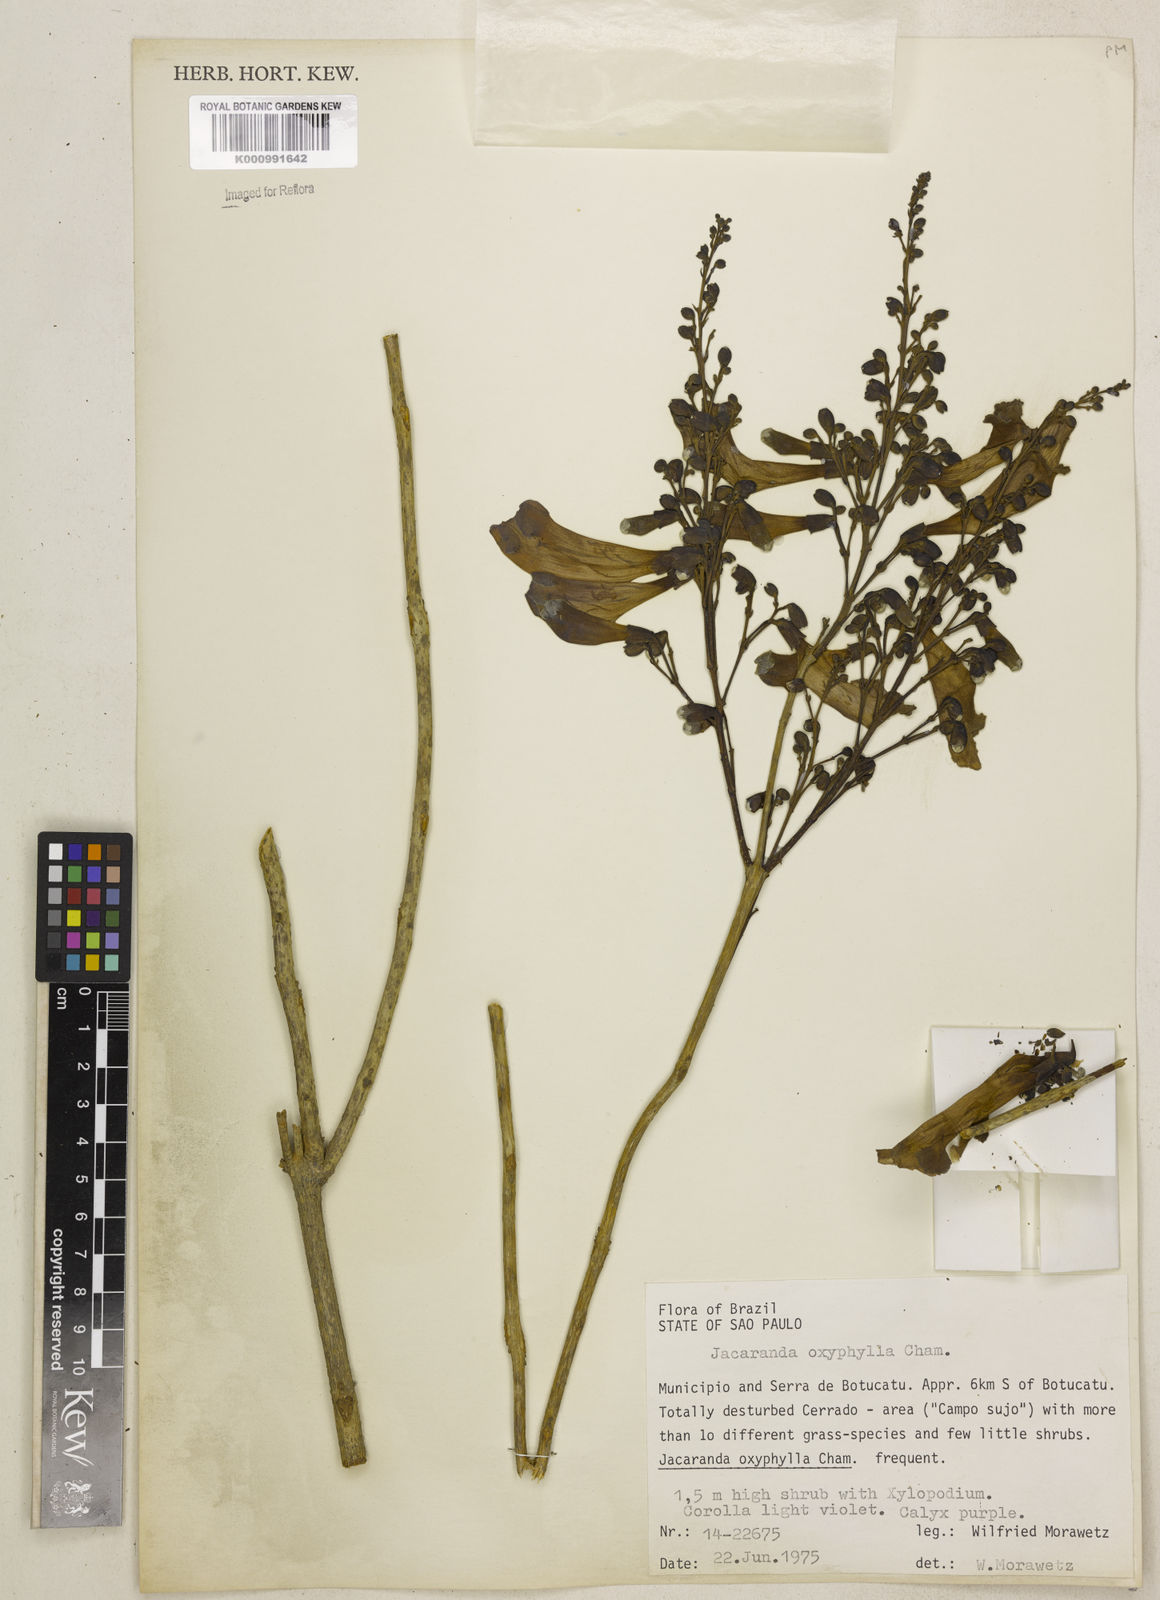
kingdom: Plantae
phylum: Tracheophyta
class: Magnoliopsida
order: Lamiales
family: Bignoniaceae
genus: Jacaranda
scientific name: Jacaranda caroba
